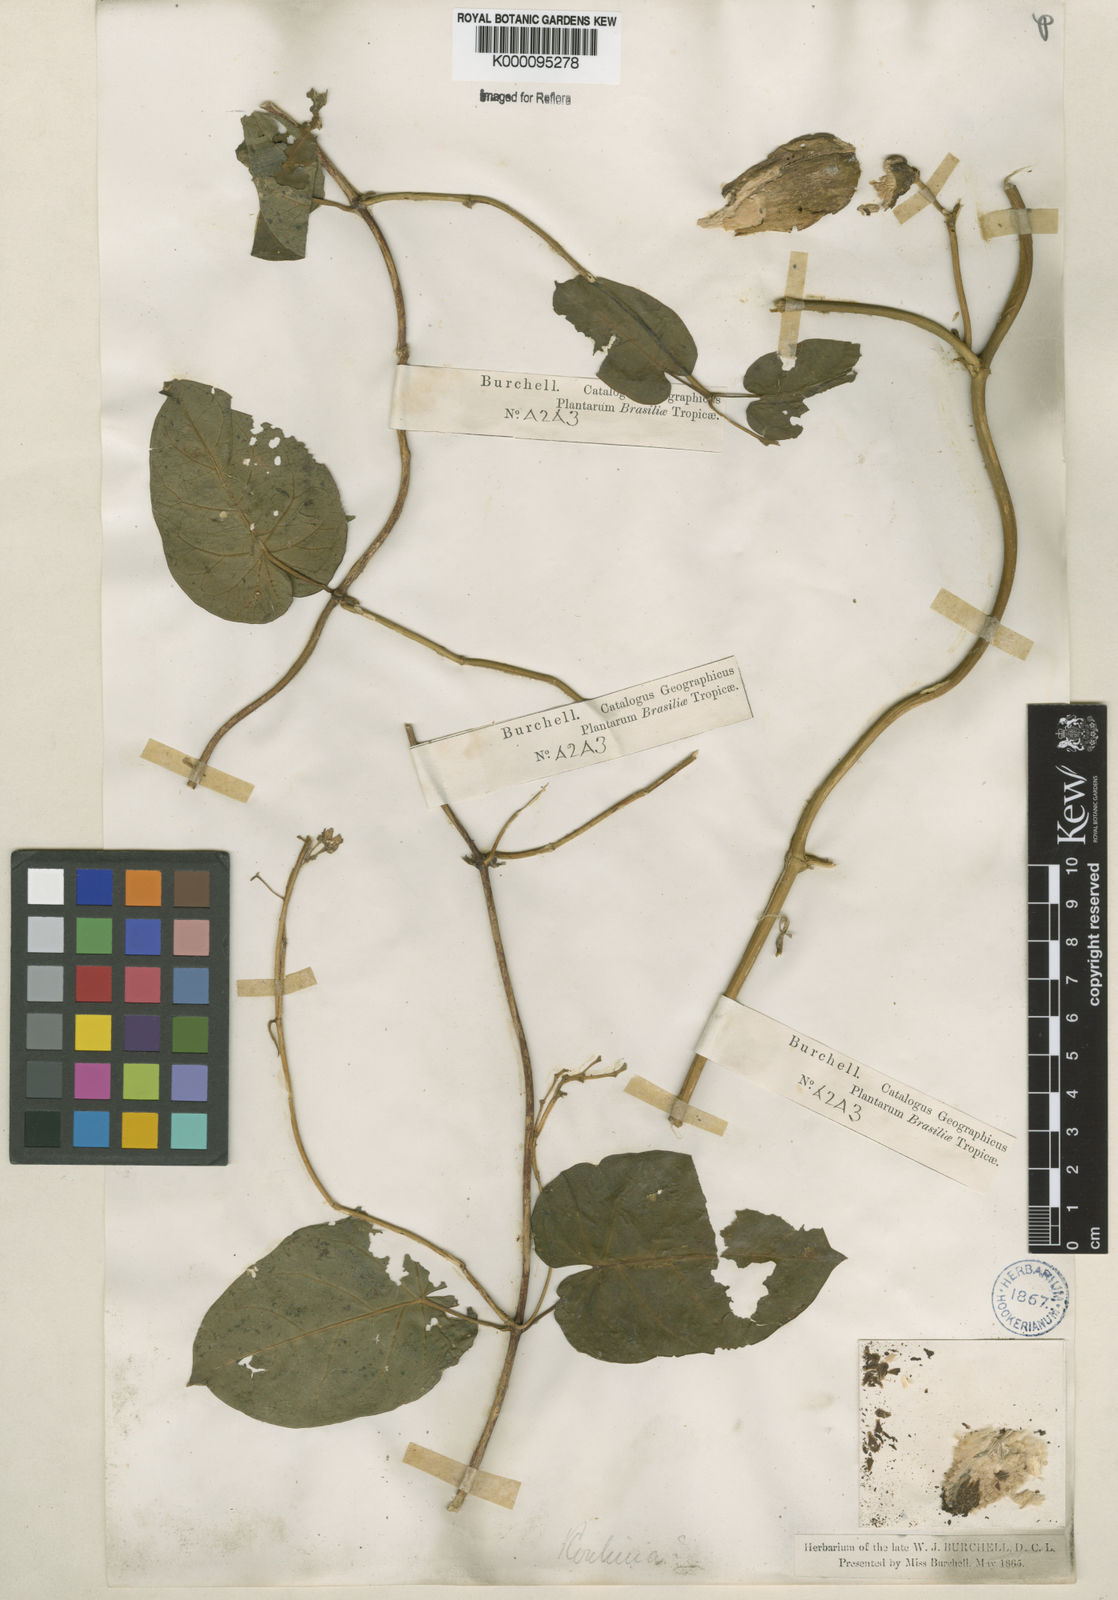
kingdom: Plantae
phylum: Tracheophyta
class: Magnoliopsida
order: Gentianales
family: Apocynaceae
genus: Cynanchum
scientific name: Cynanchum montevidense
